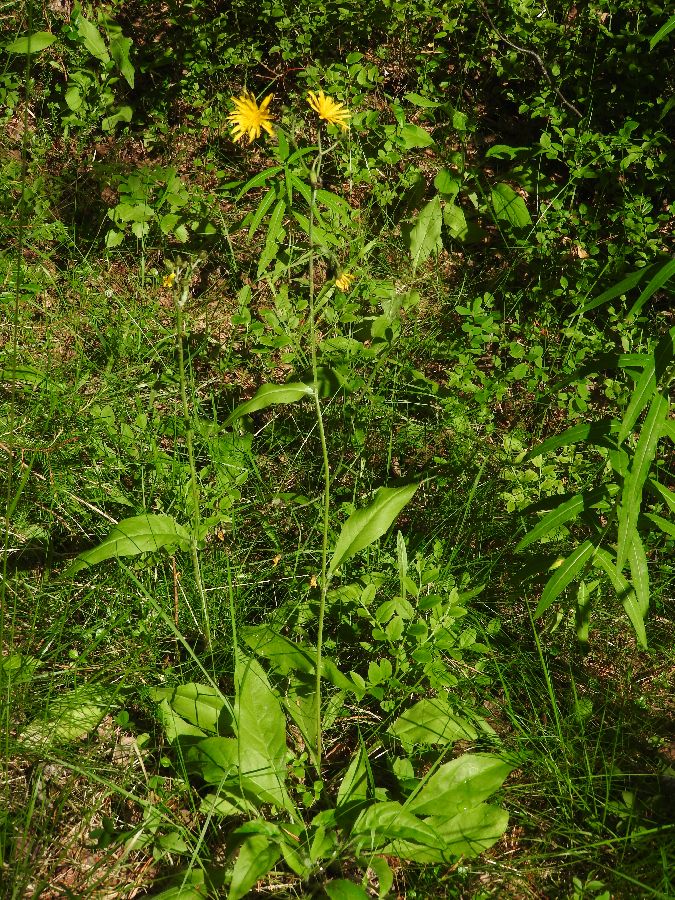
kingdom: Plantae
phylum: Tracheophyta
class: Magnoliopsida
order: Asterales
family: Asteraceae
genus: Hieracium
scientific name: Hieracium vulgatum
